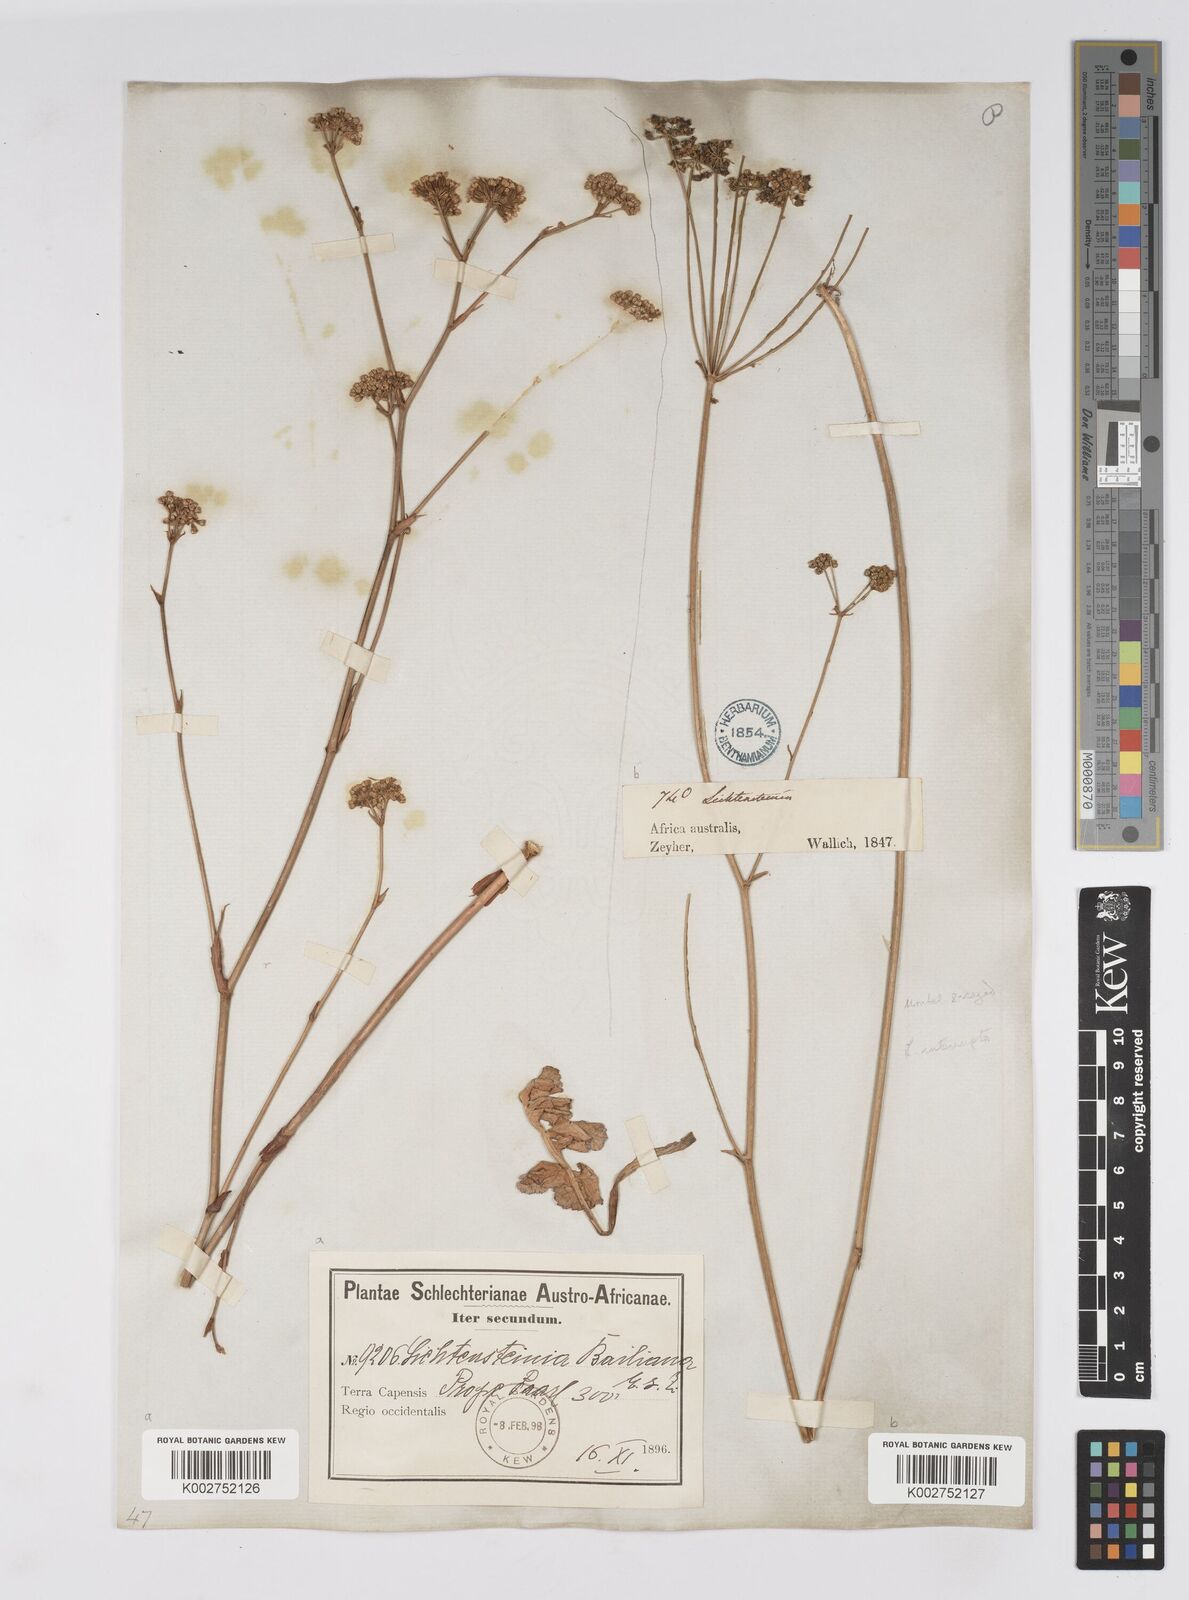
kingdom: Plantae
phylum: Tracheophyta
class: Magnoliopsida
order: Apiales
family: Apiaceae
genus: Lichtensteinia
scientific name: Lichtensteinia obscura
